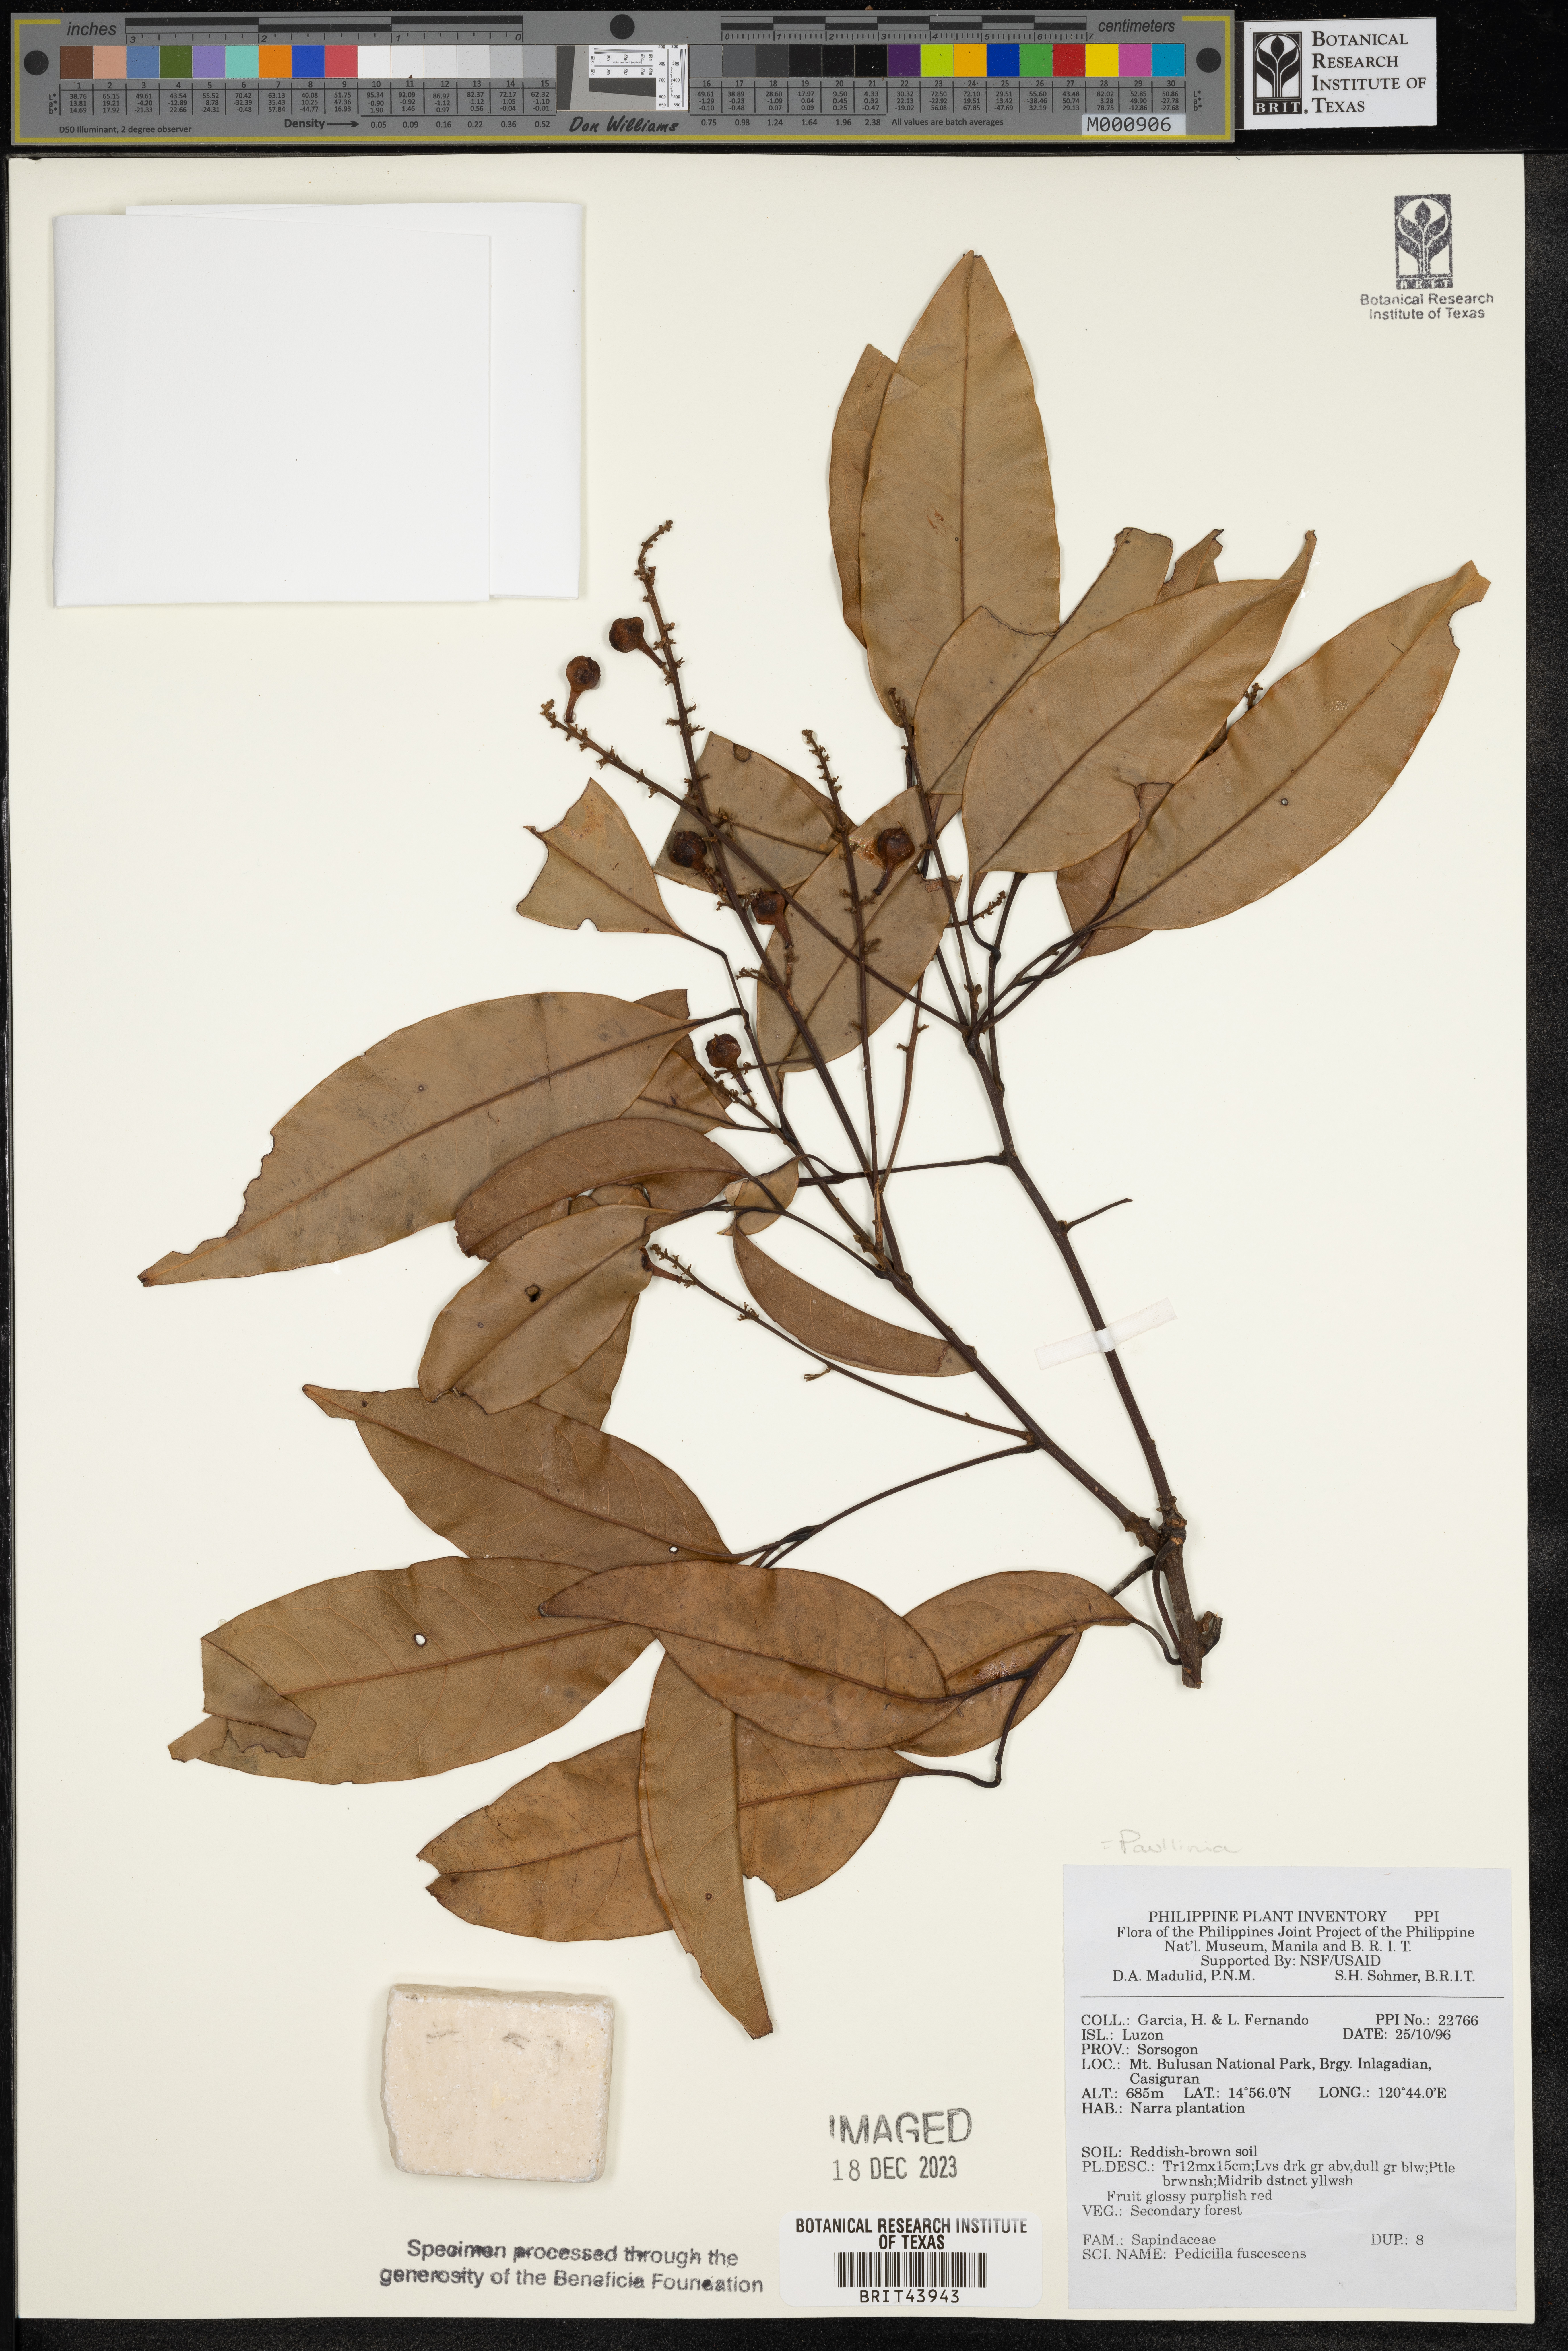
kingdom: Plantae
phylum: Tracheophyta
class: Magnoliopsida
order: Sapindales
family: Sapindaceae
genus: Paullinia
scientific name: Paullinia fuscescens
